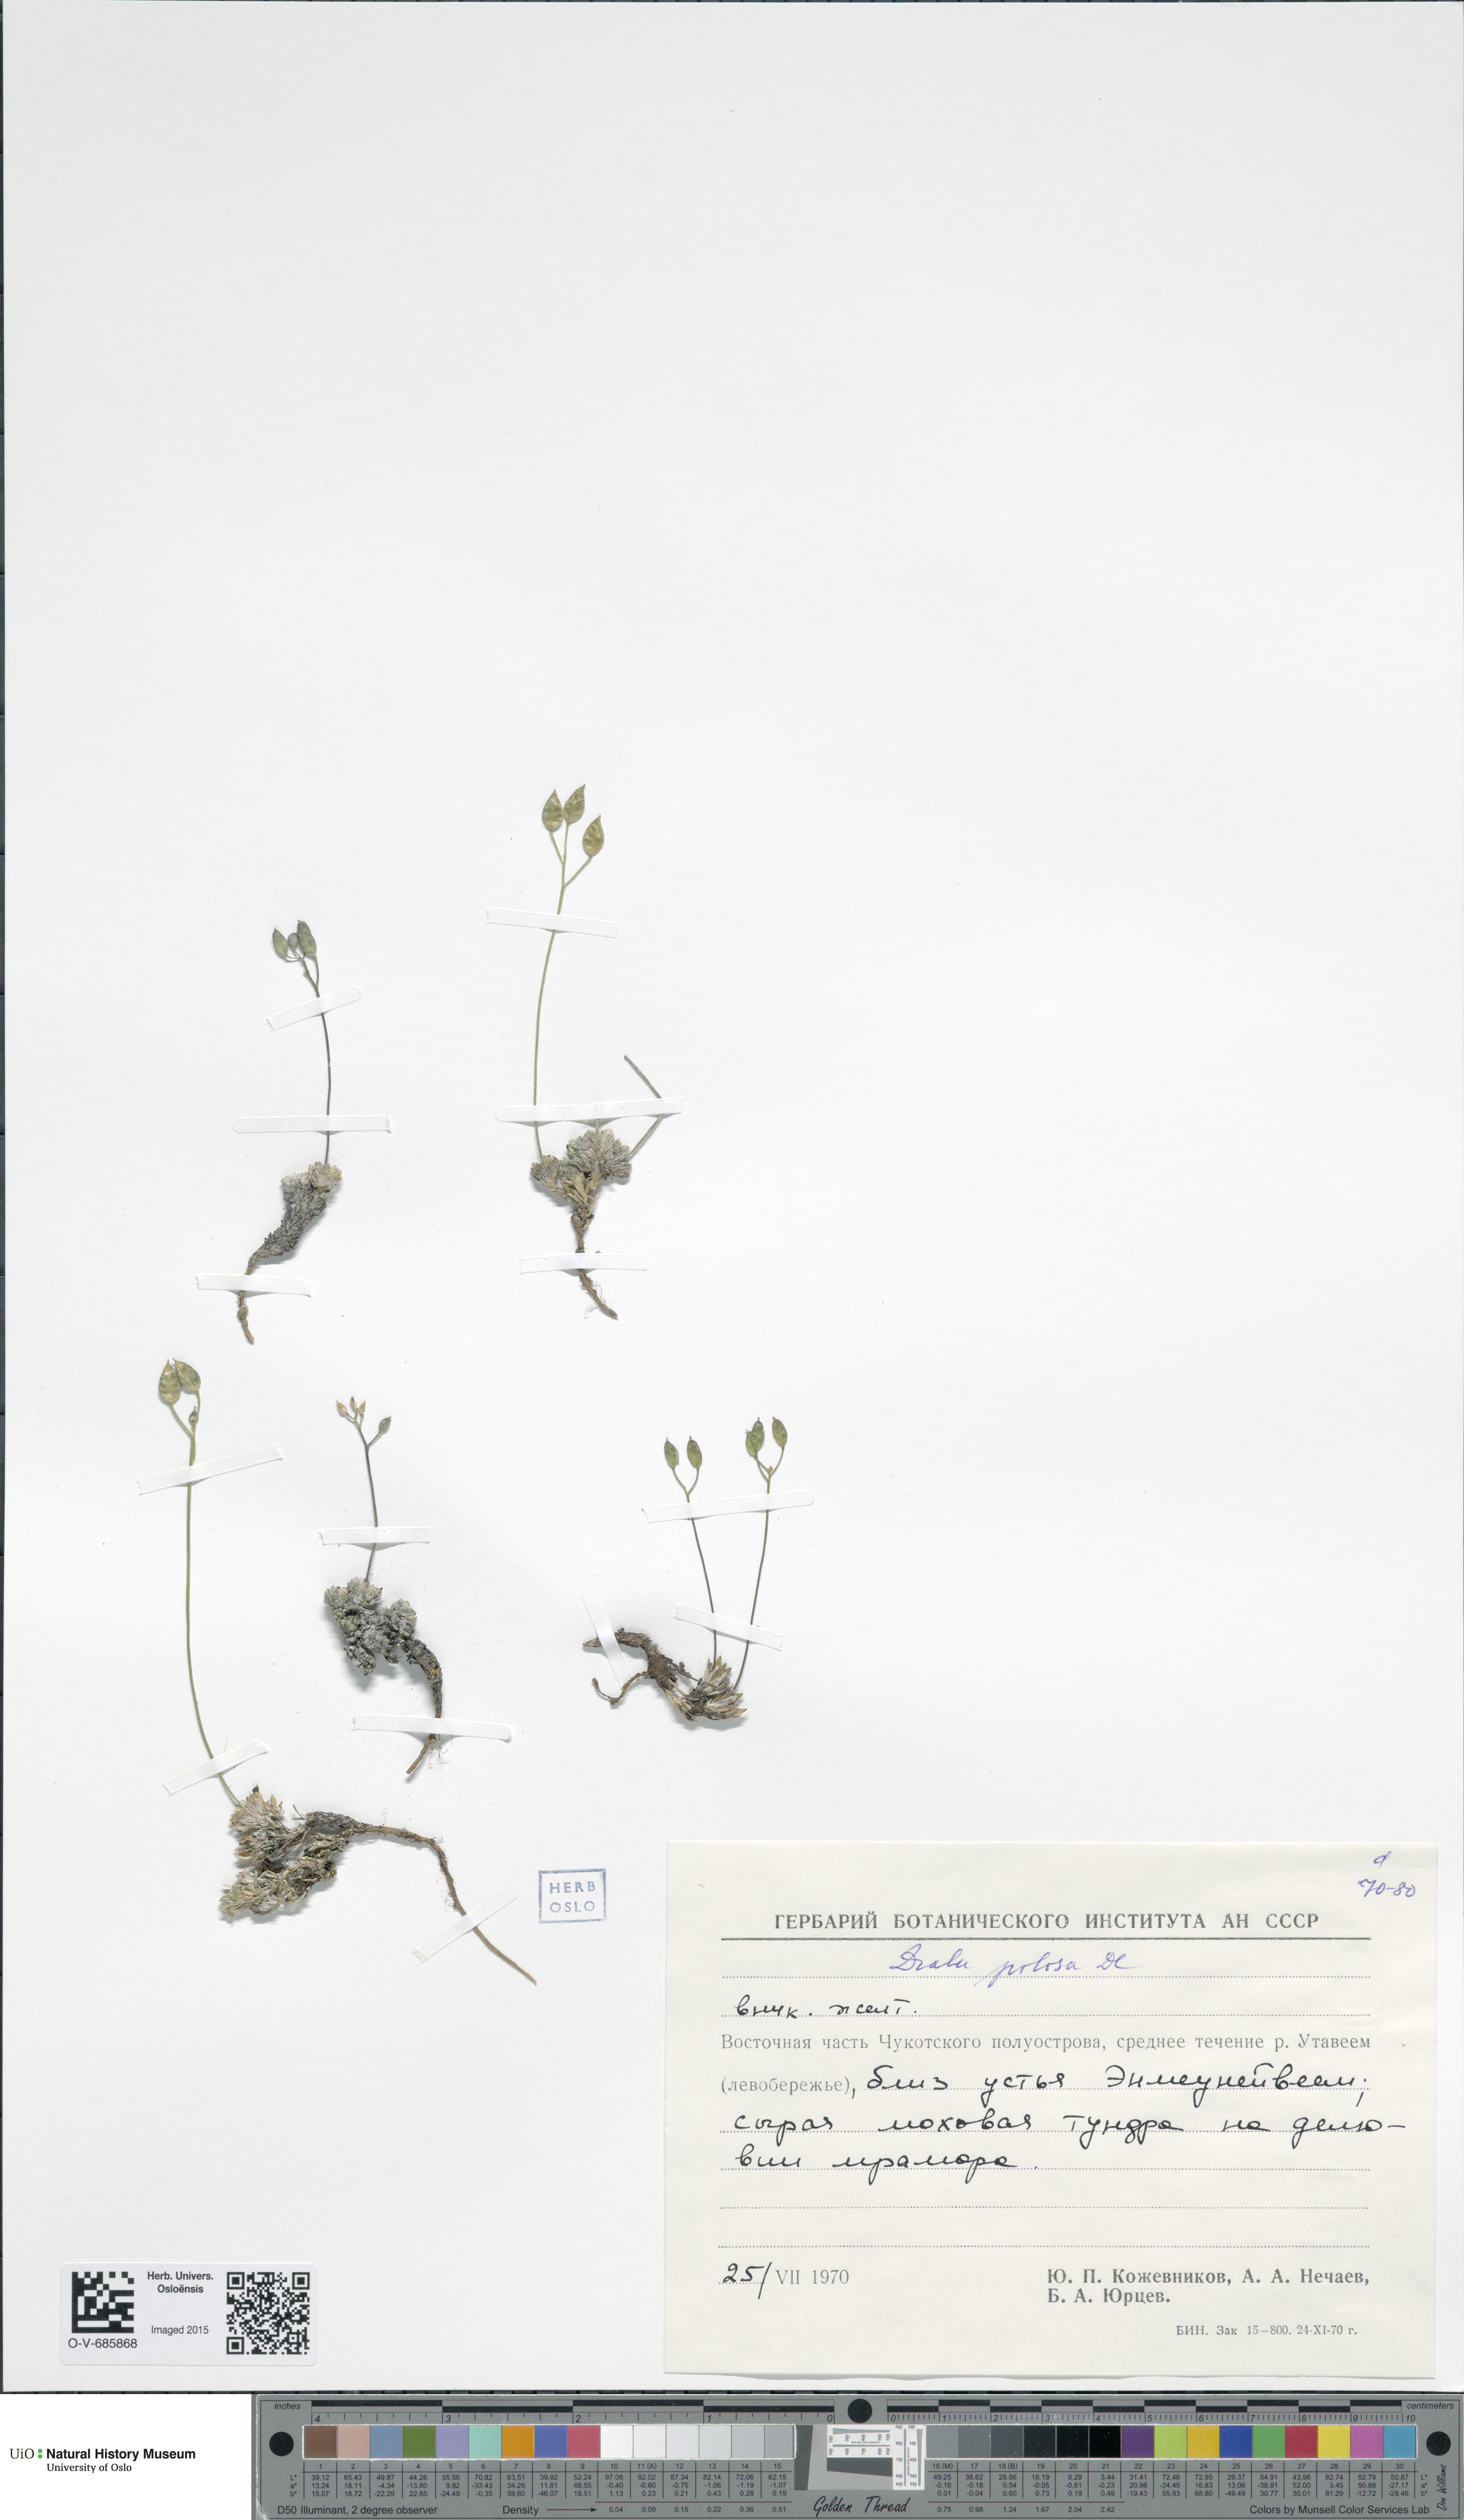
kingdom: Plantae
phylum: Tracheophyta
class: Magnoliopsida
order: Brassicales
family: Brassicaceae
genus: Draba
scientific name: Draba pilosa
